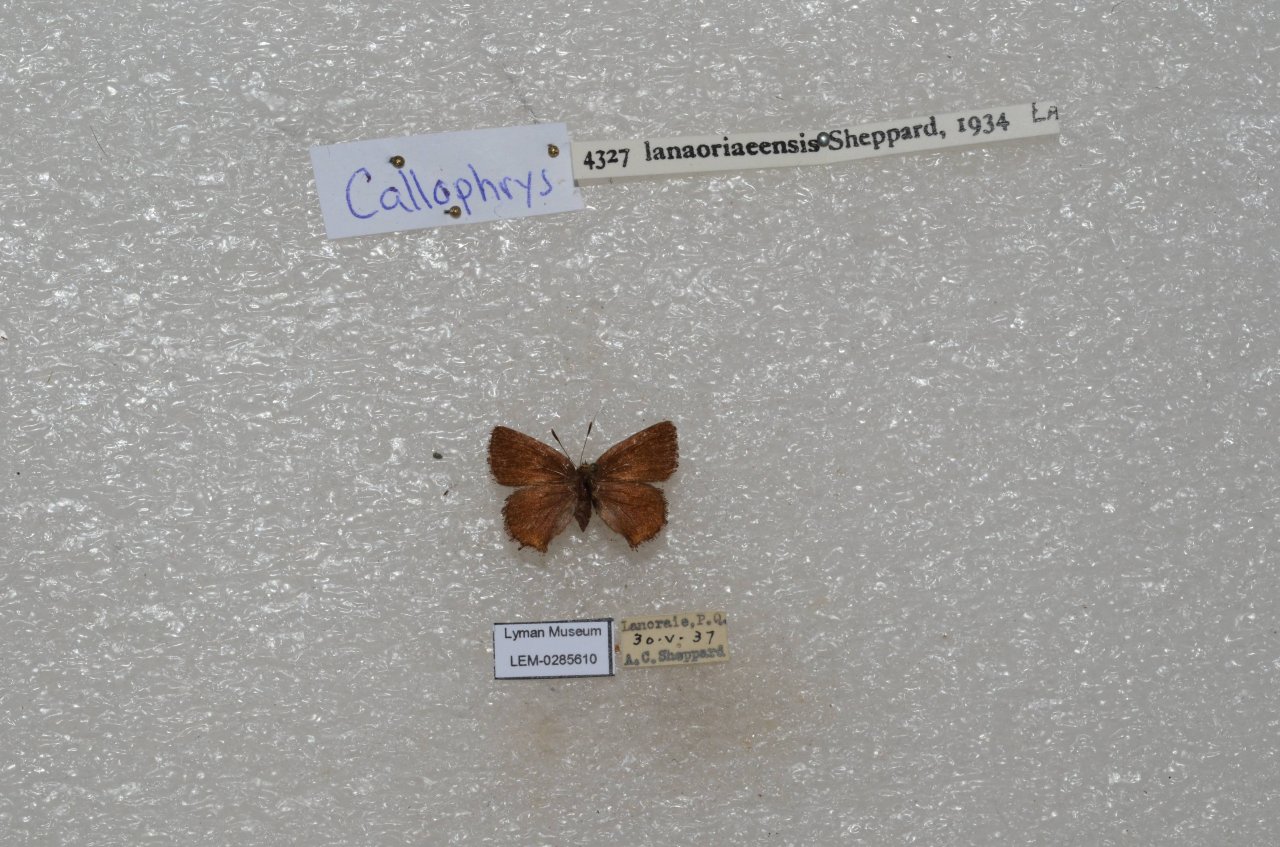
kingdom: Animalia
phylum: Arthropoda
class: Insecta
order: Lepidoptera
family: Lycaenidae
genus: Incisalia
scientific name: Incisalia lanoraieensis
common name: Bog Elfin
